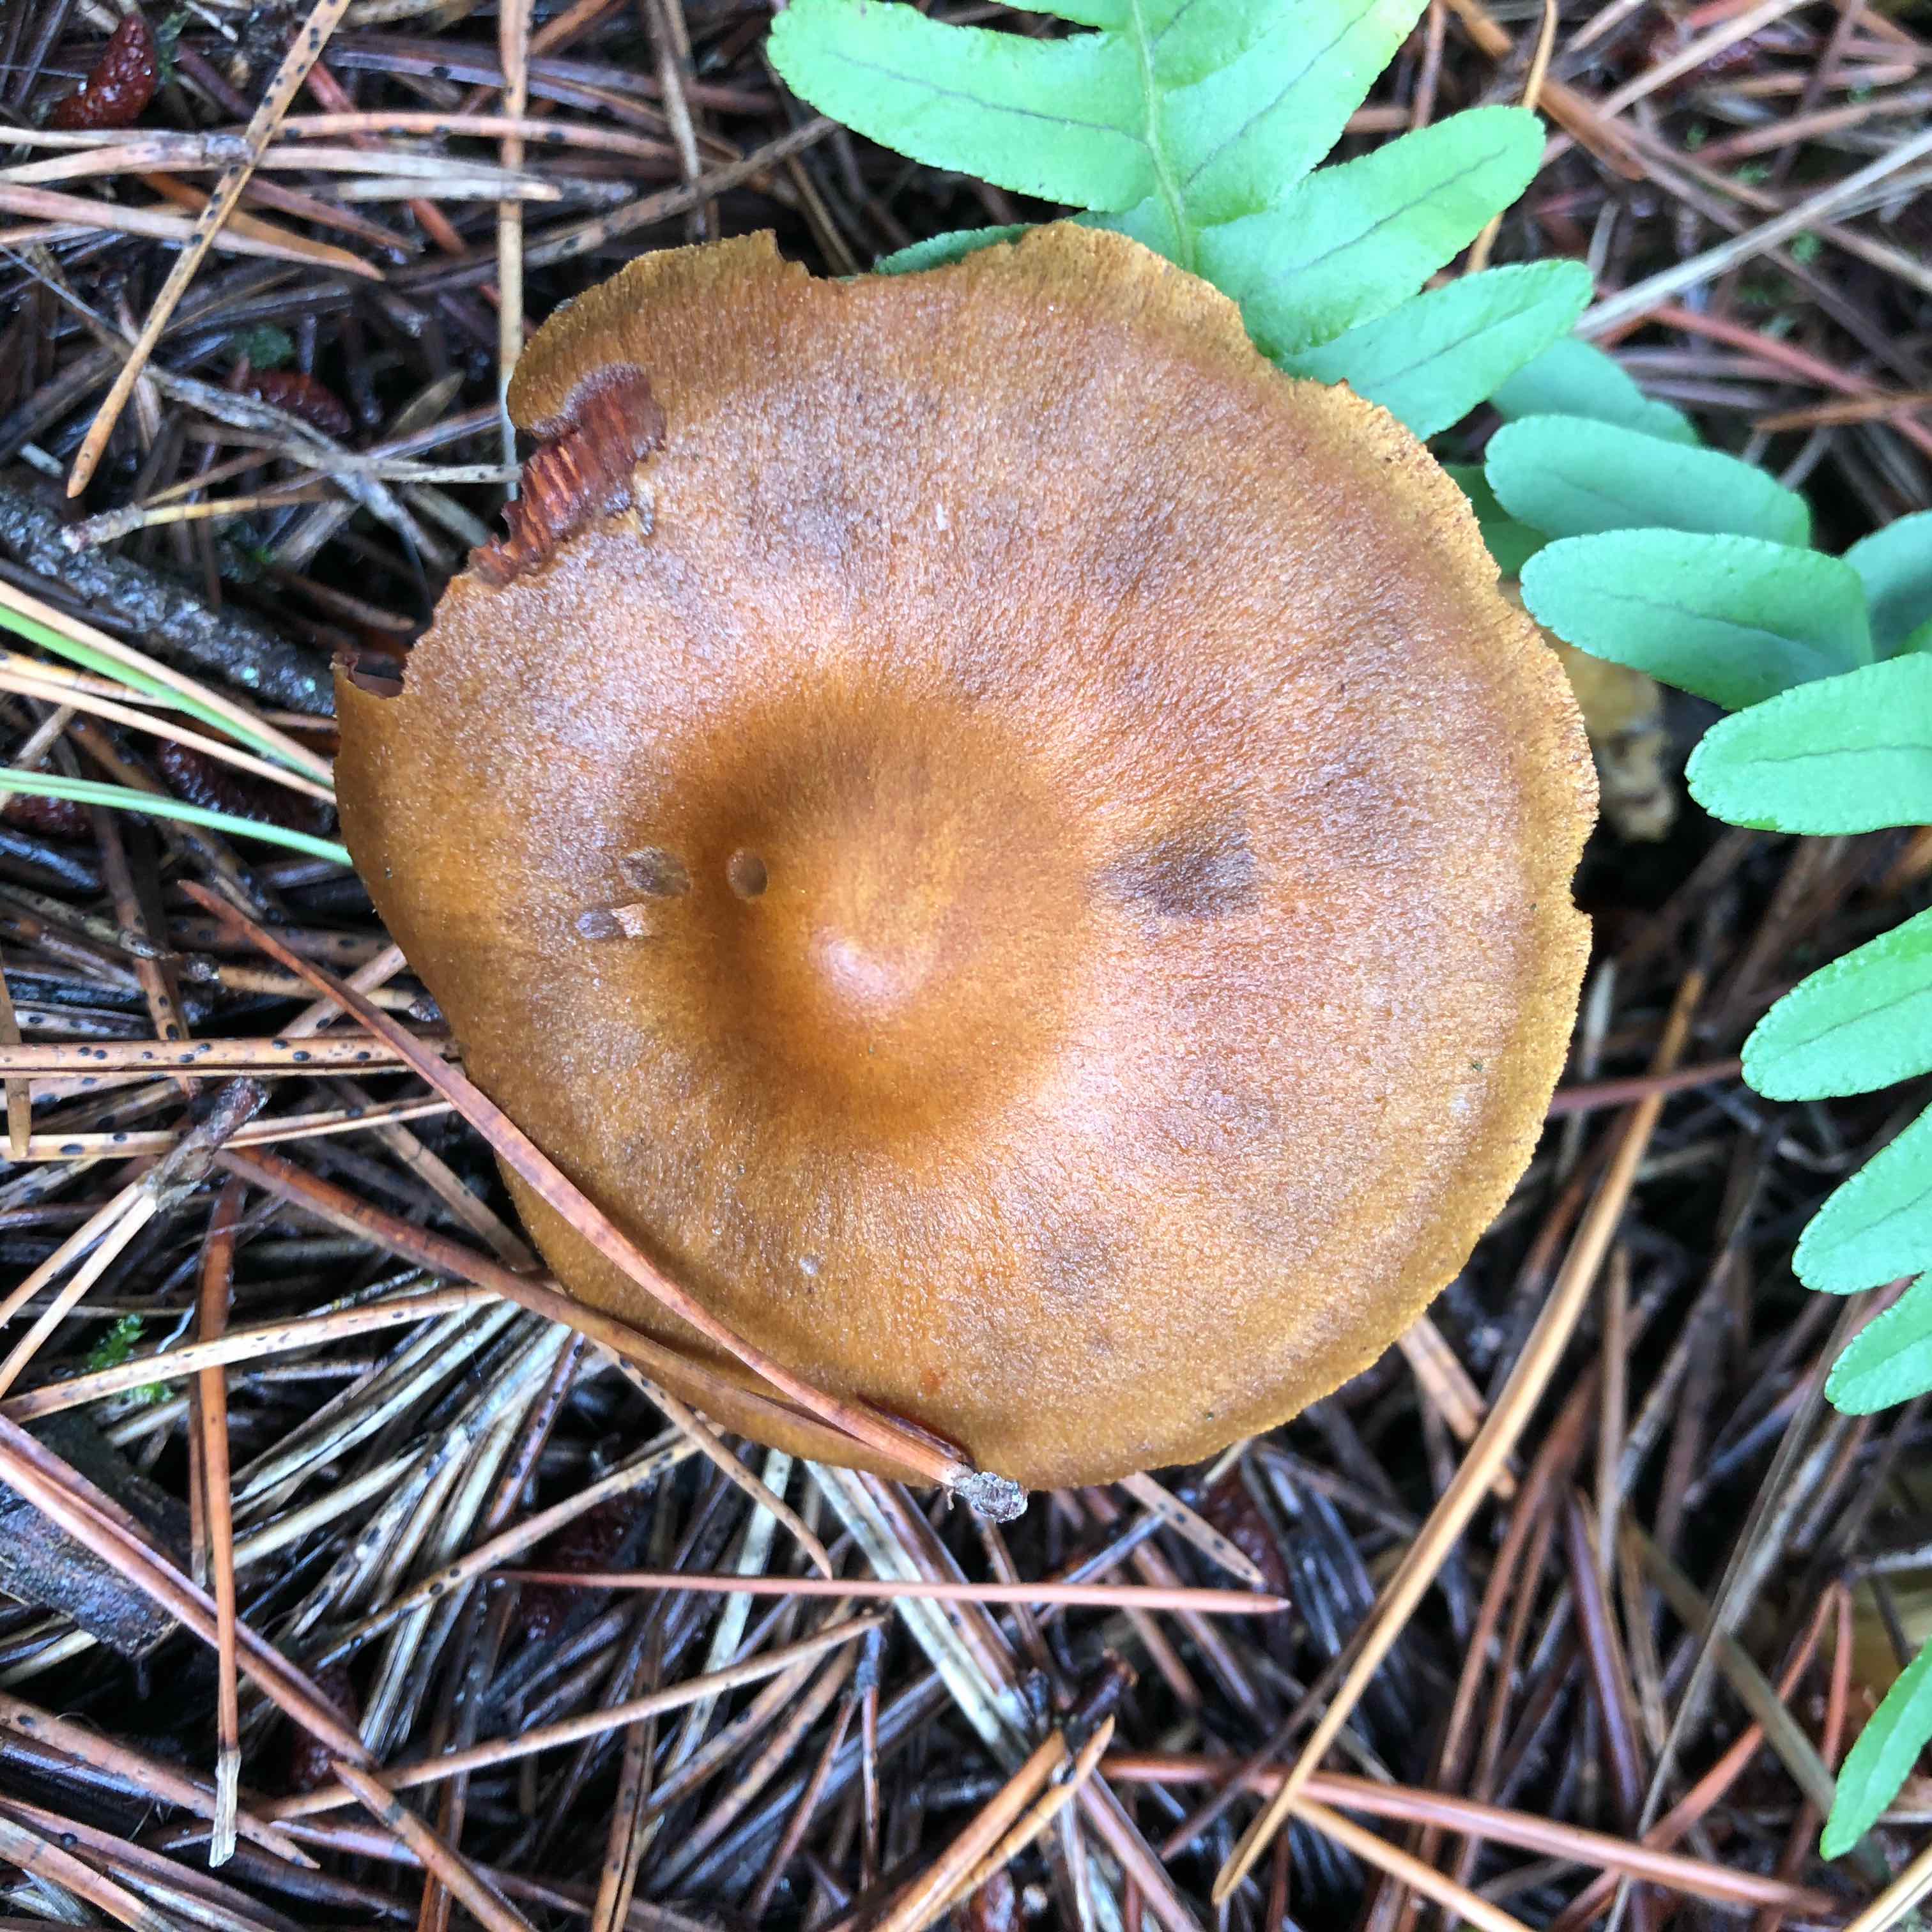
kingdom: Fungi
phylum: Basidiomycota
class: Agaricomycetes
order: Agaricales
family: Cortinariaceae
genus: Cortinarius
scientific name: Cortinarius
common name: cinnoberbladet slørhat
